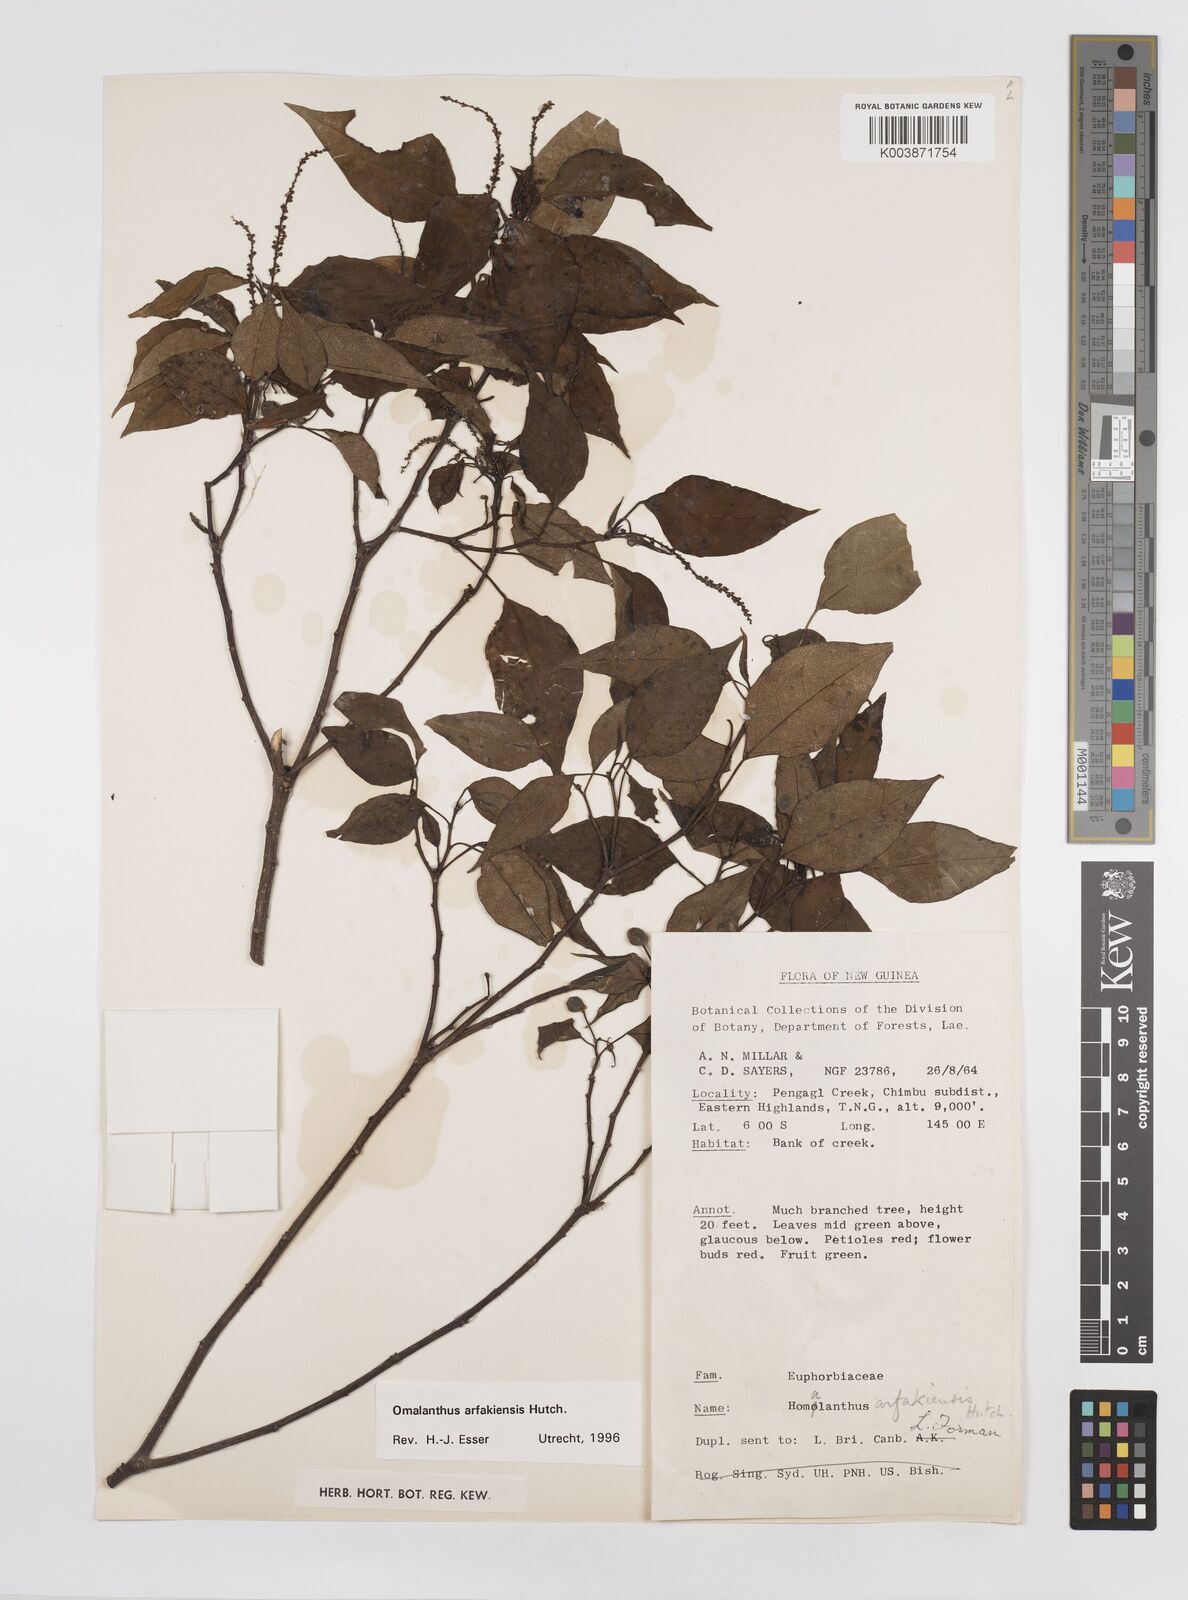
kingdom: Plantae
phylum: Tracheophyta
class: Magnoliopsida
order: Malpighiales
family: Euphorbiaceae
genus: Homalanthus
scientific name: Homalanthus arfakiensis
